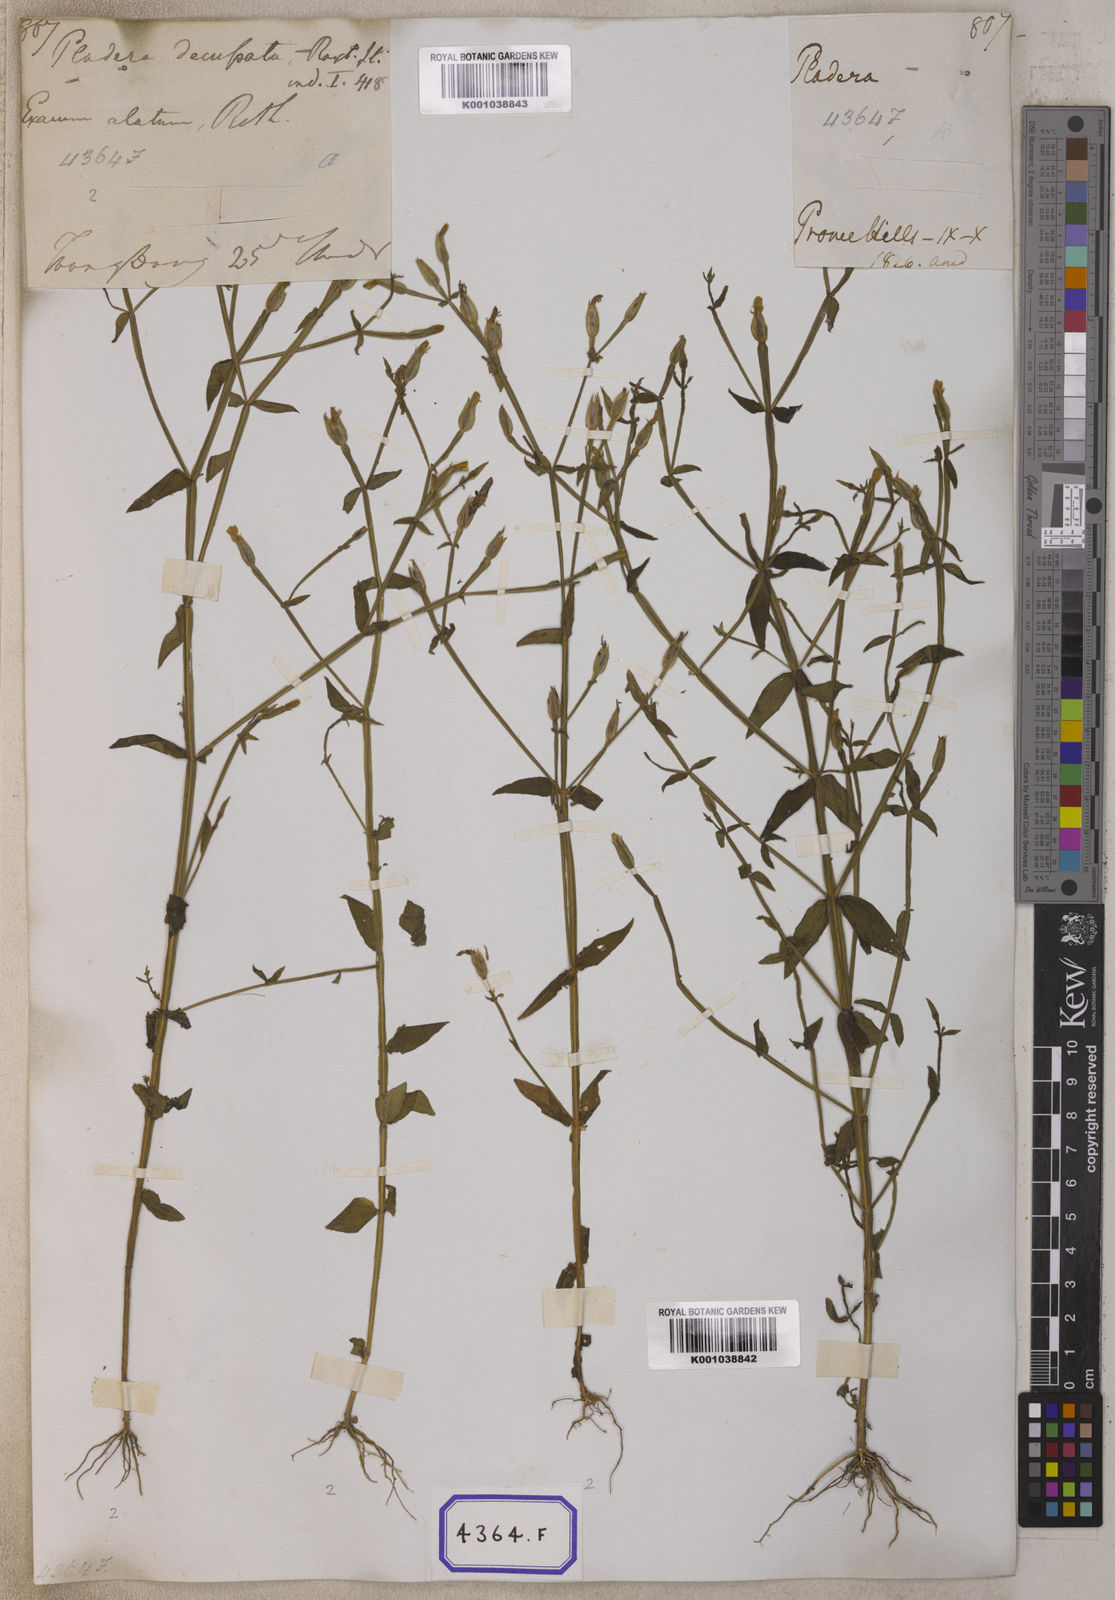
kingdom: Plantae
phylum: Tracheophyta
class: Magnoliopsida
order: Gentianales
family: Gentianaceae
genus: Canscora
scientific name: Canscora alata
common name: Canscora
